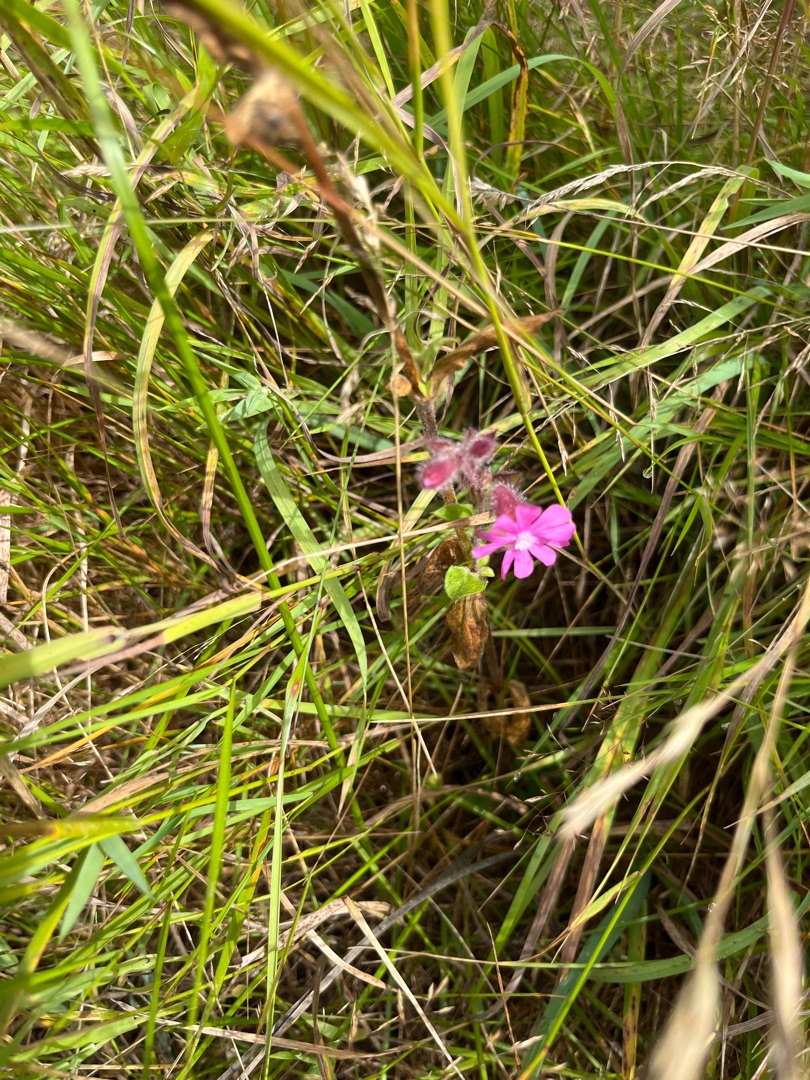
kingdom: Plantae
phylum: Tracheophyta
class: Magnoliopsida
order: Caryophyllales
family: Caryophyllaceae
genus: Silene
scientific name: Silene dioica
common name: Dagpragtstjerne
